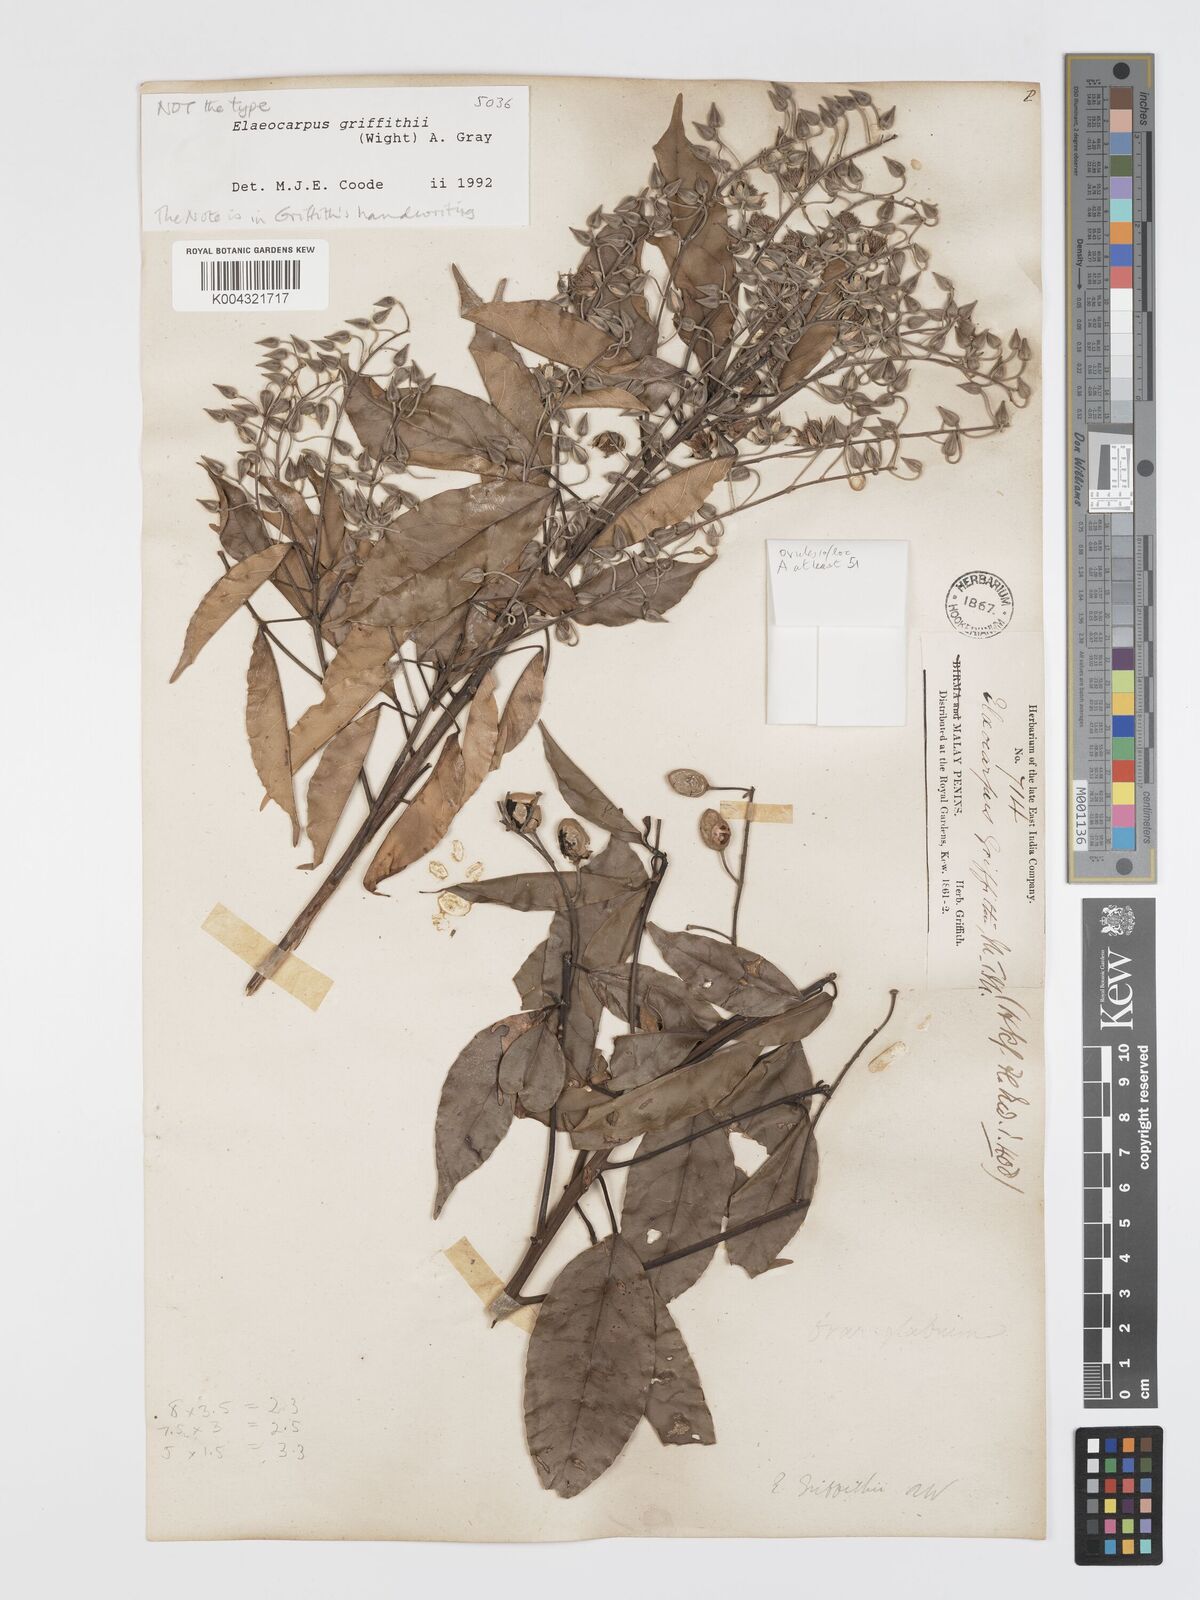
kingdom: Plantae
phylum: Tracheophyta
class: Magnoliopsida
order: Oxalidales
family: Elaeocarpaceae
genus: Elaeocarpus
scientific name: Elaeocarpus griffithii
